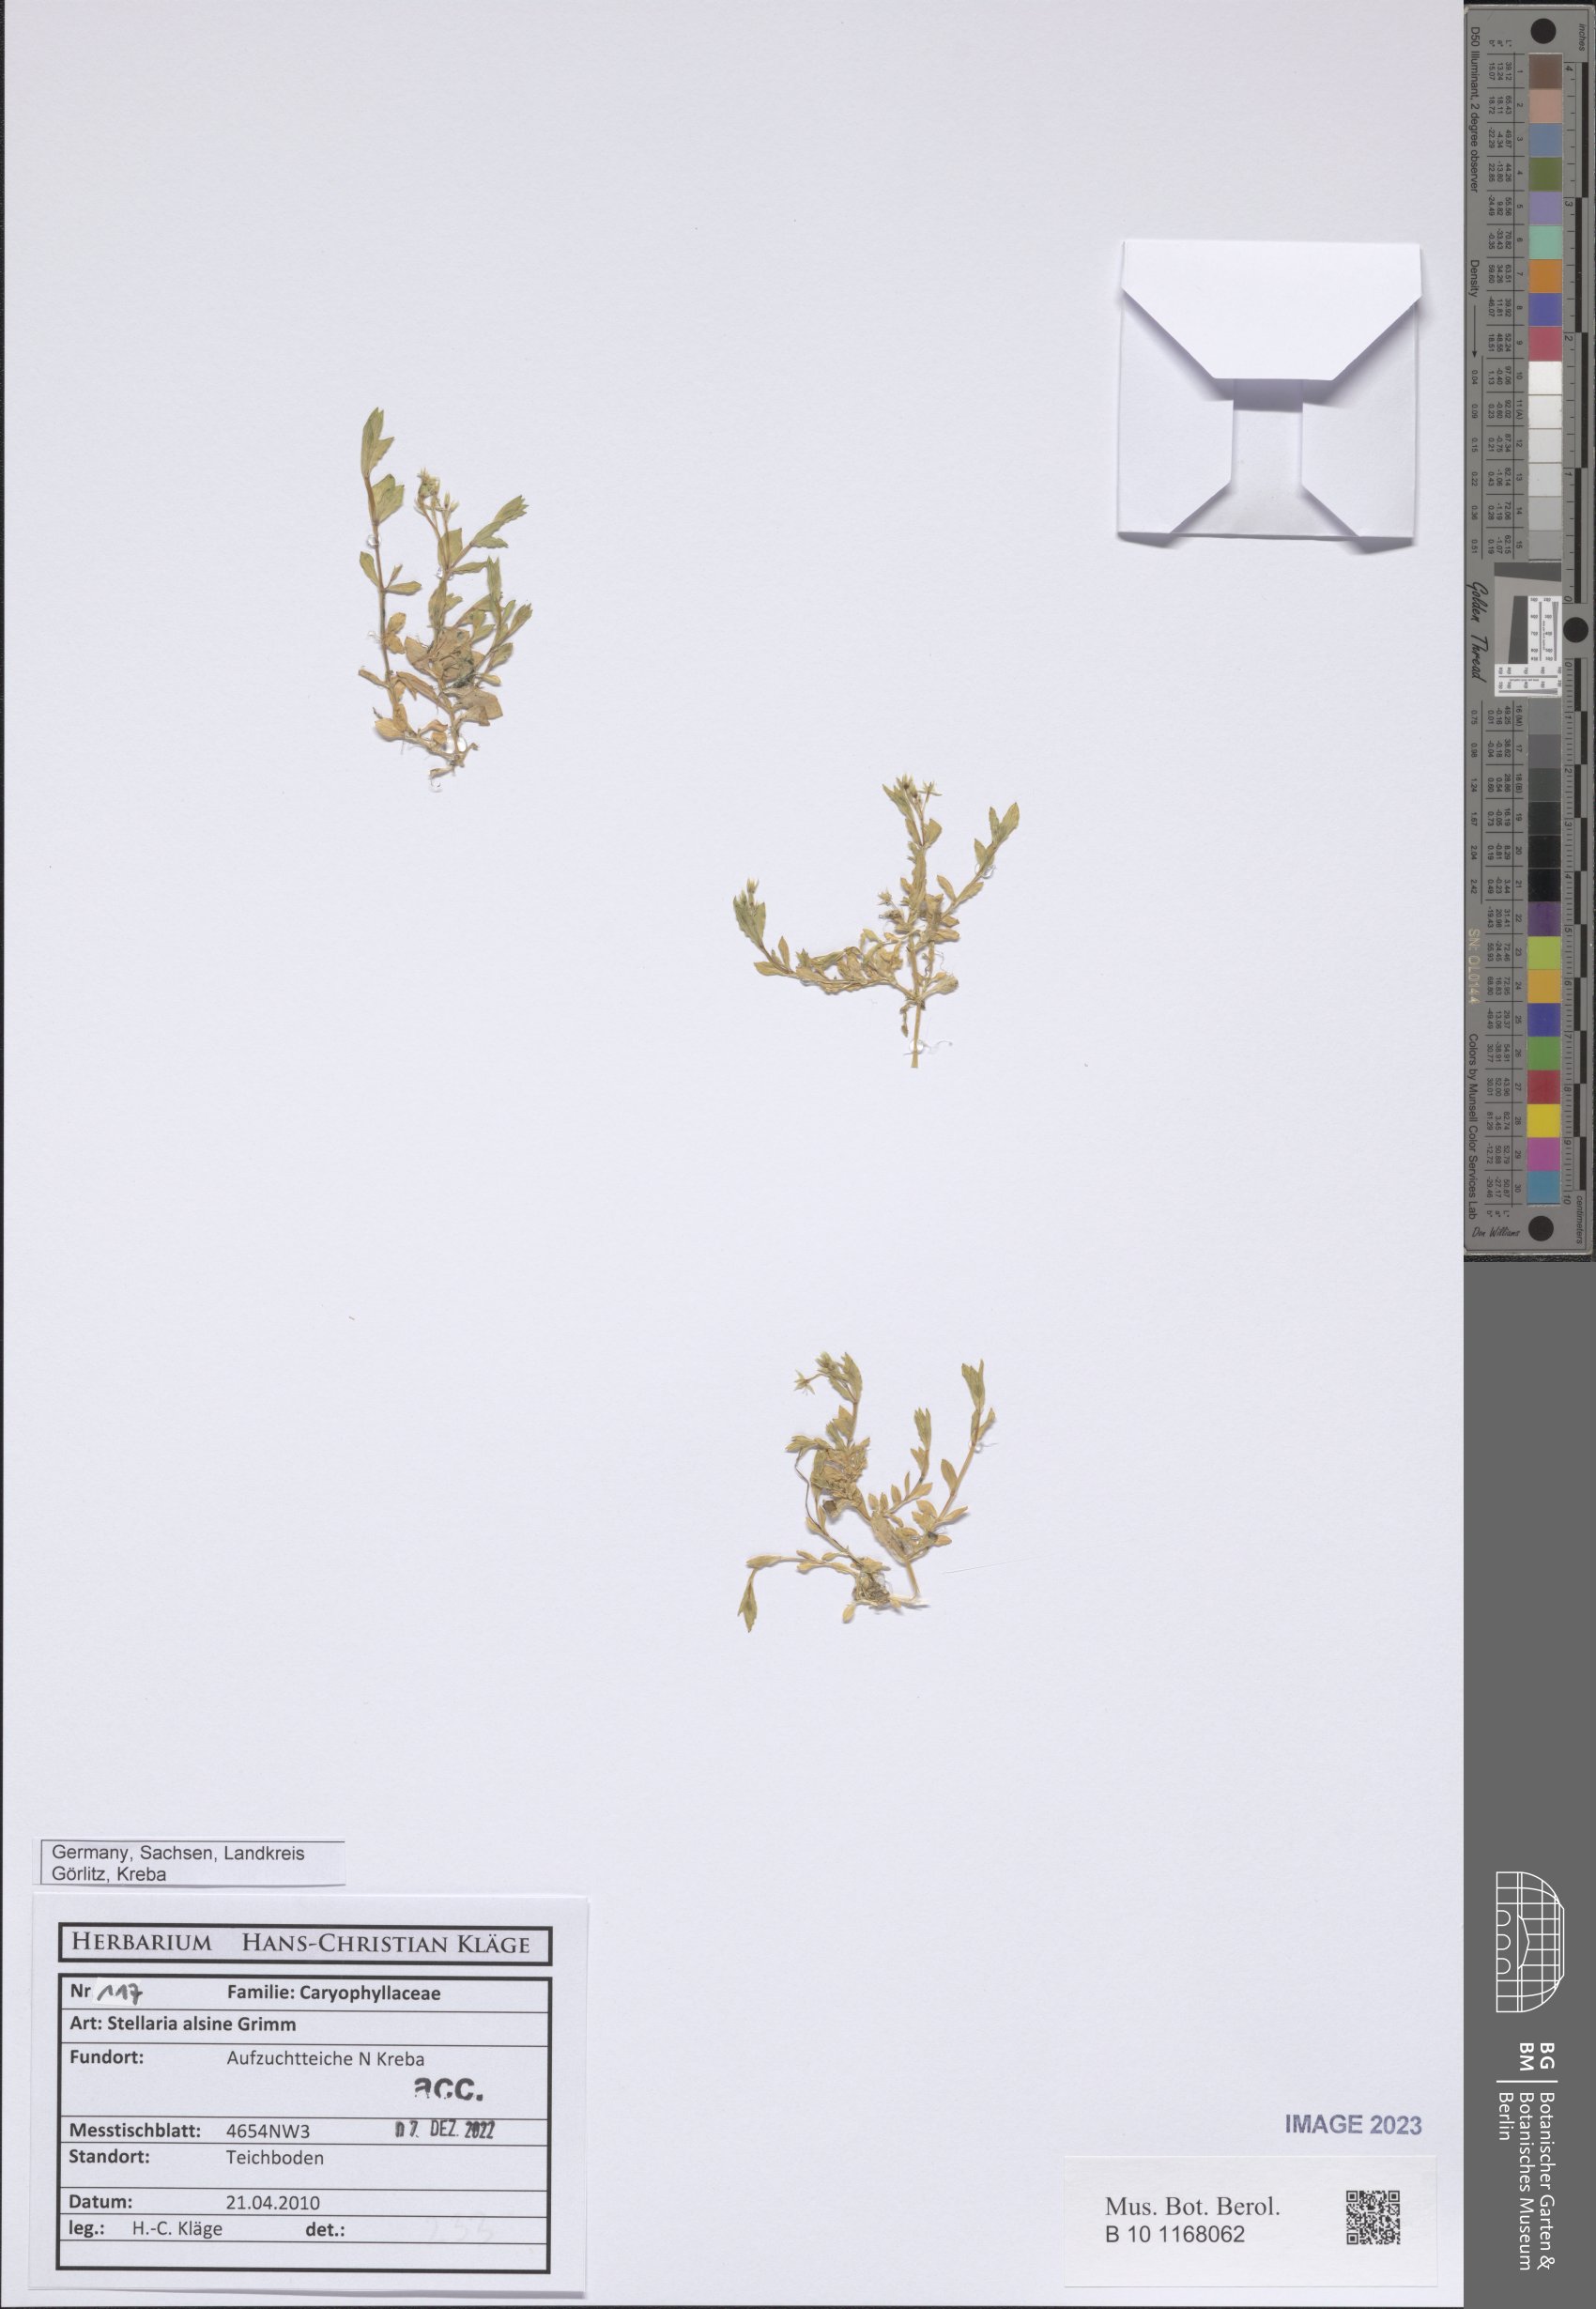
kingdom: Plantae
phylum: Tracheophyta
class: Magnoliopsida
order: Caryophyllales
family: Caryophyllaceae
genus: Stellaria
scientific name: Stellaria alsine
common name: Bog stitchwort
